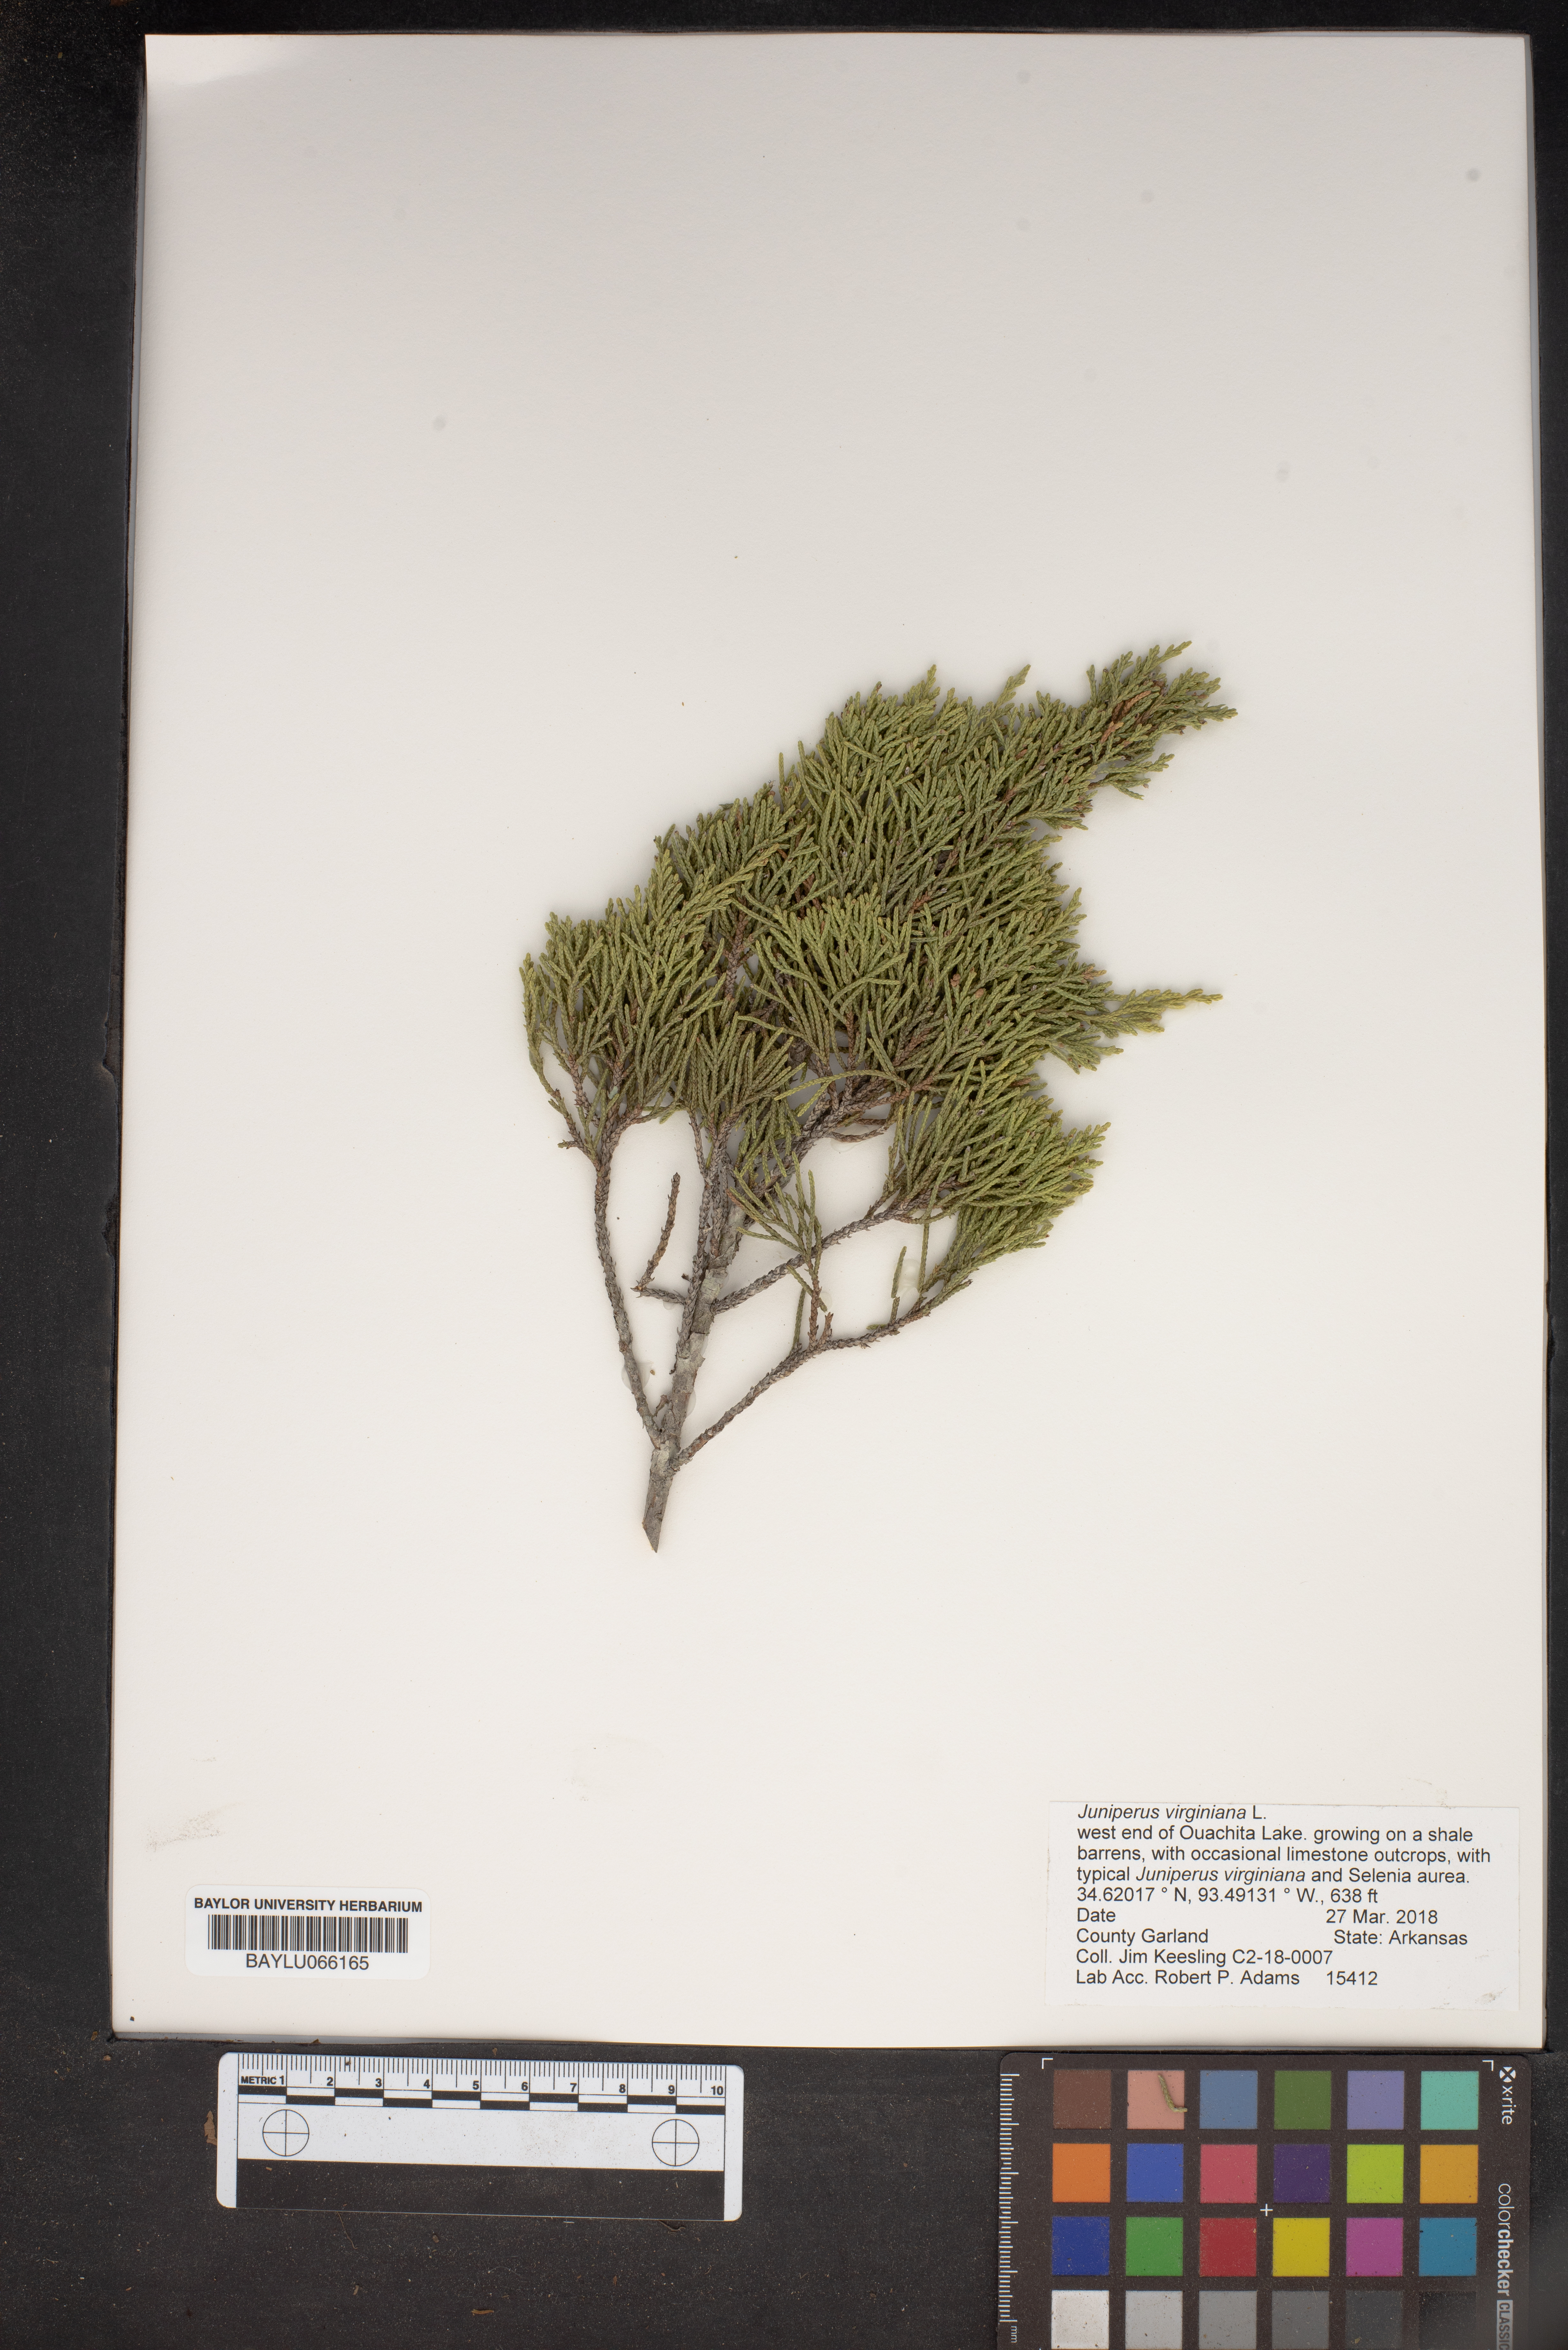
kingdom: Plantae
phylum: Tracheophyta
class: Pinopsida
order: Pinales
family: Cupressaceae
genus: Juniperus
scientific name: Juniperus virginiana
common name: Red juniper
